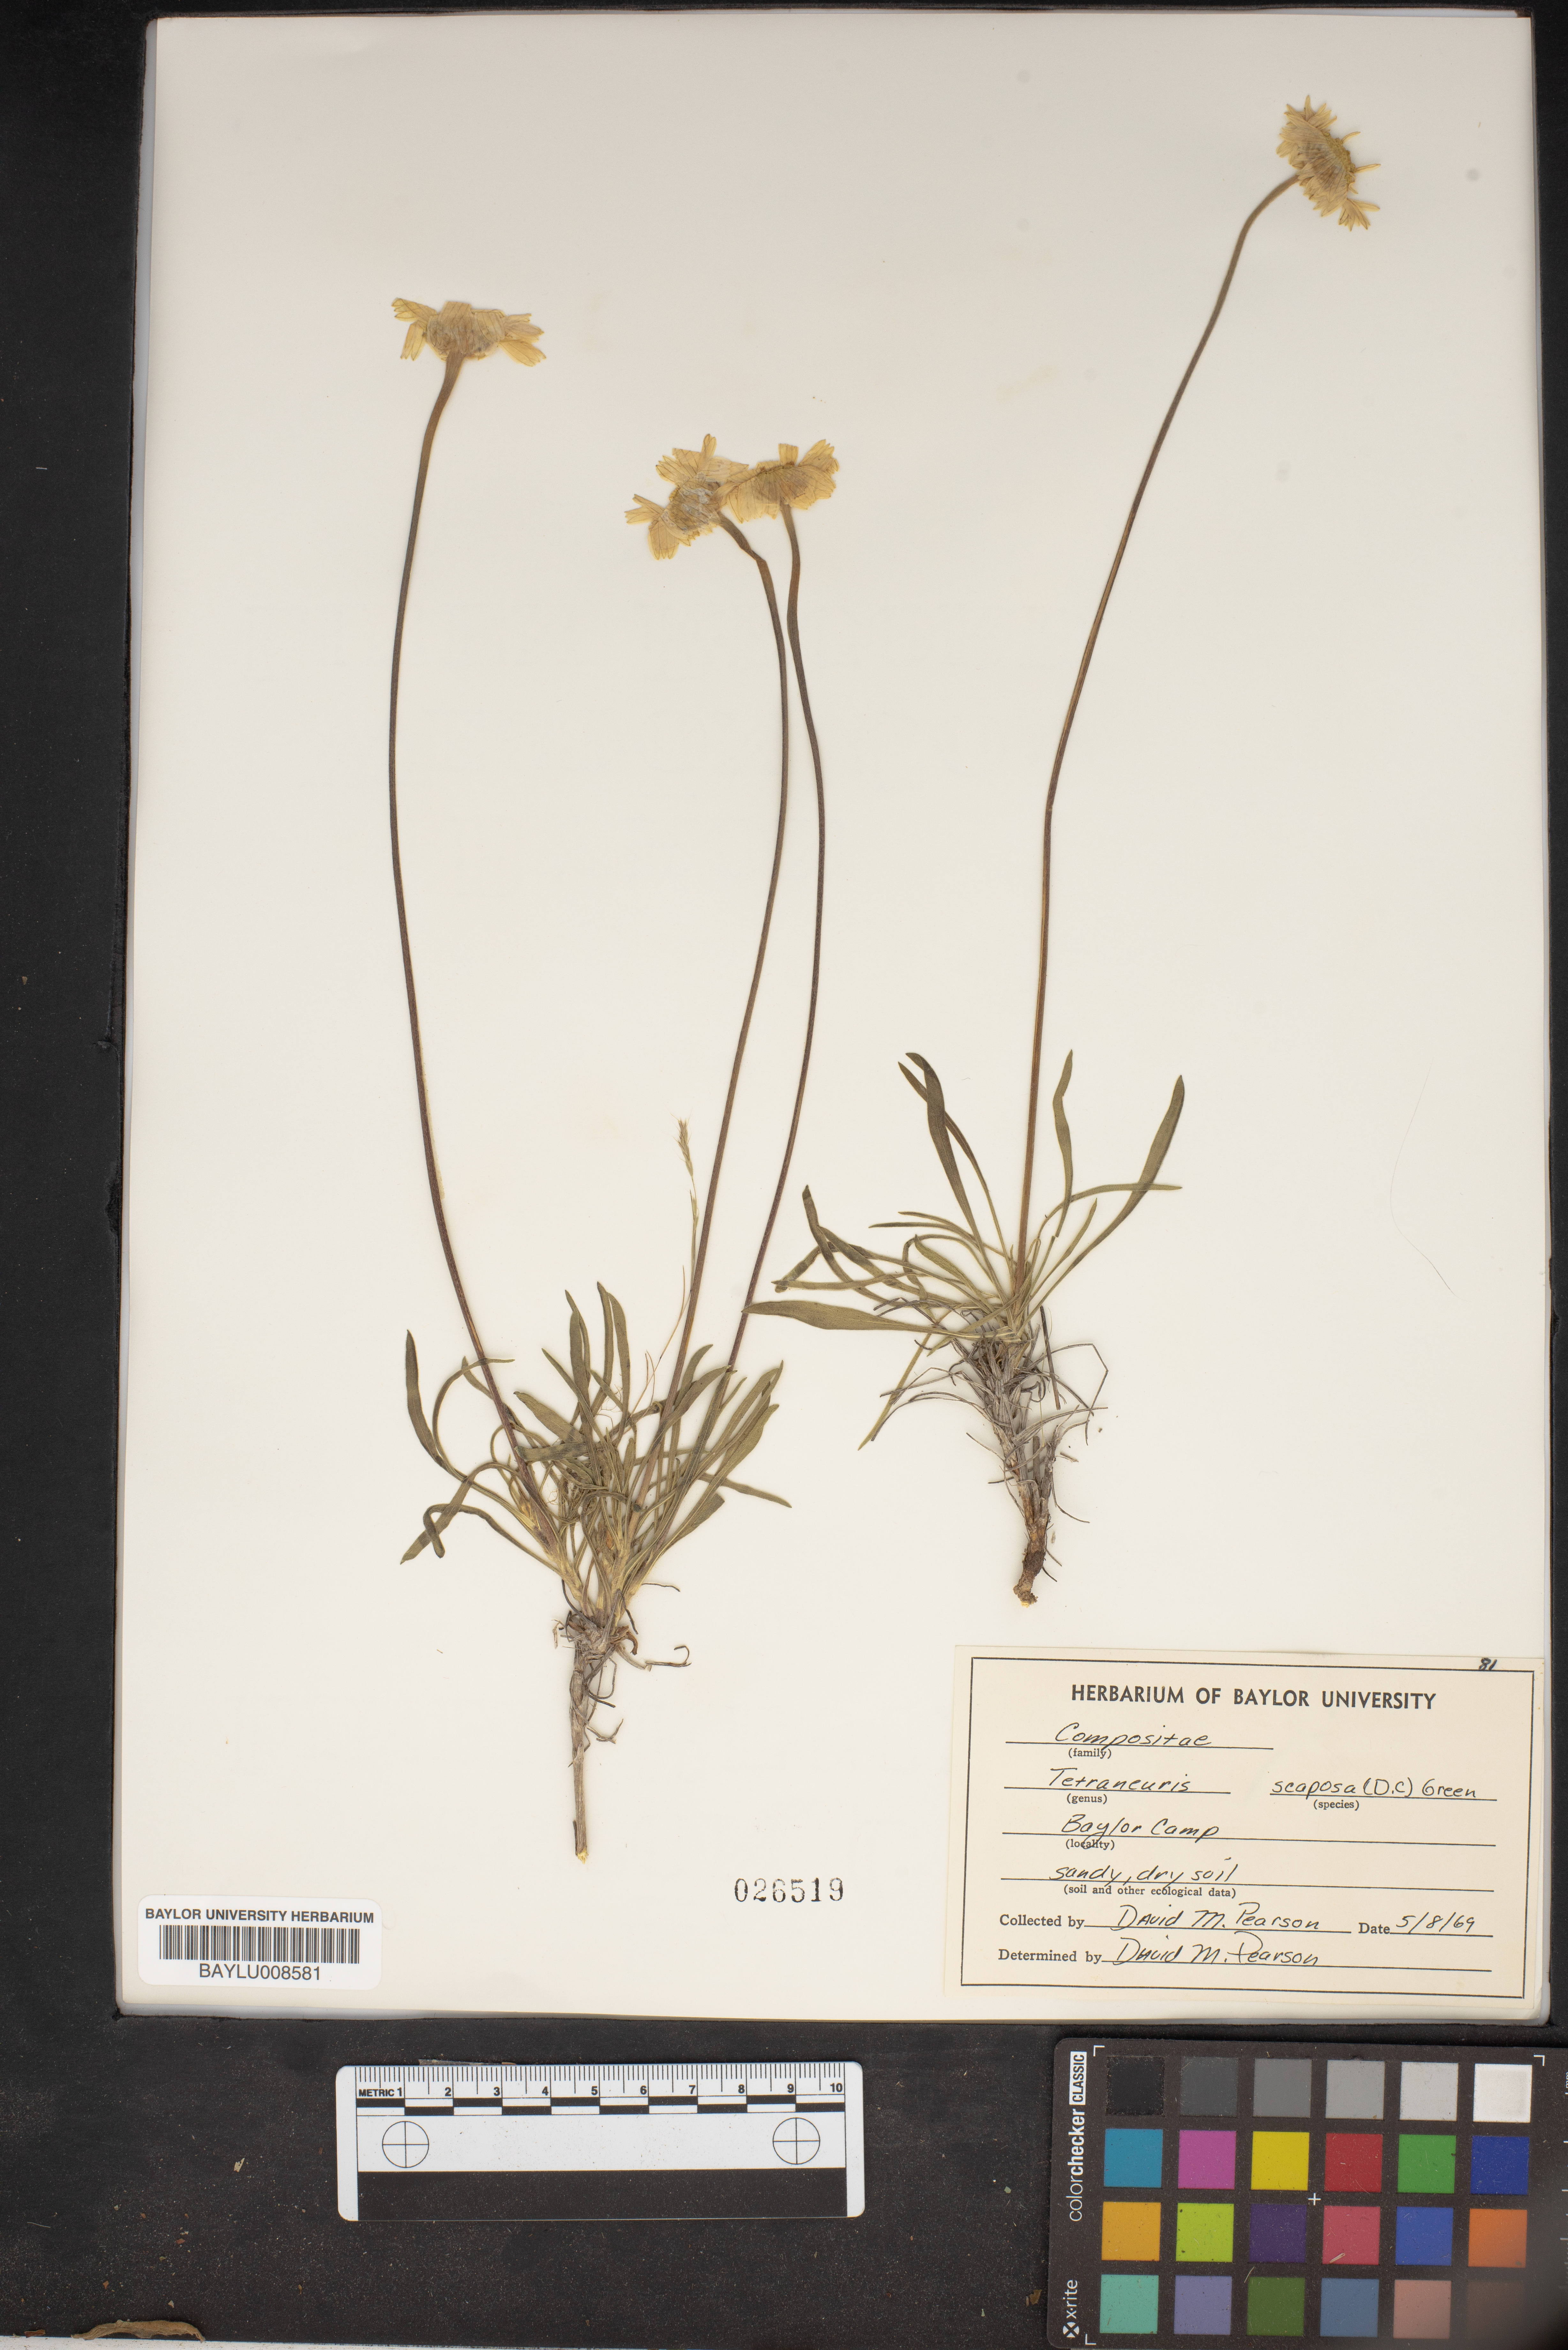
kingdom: Plantae
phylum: Tracheophyta
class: Magnoliopsida
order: Asterales
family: Asteraceae
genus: Tetraneuris
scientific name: Tetraneuris scaposa
